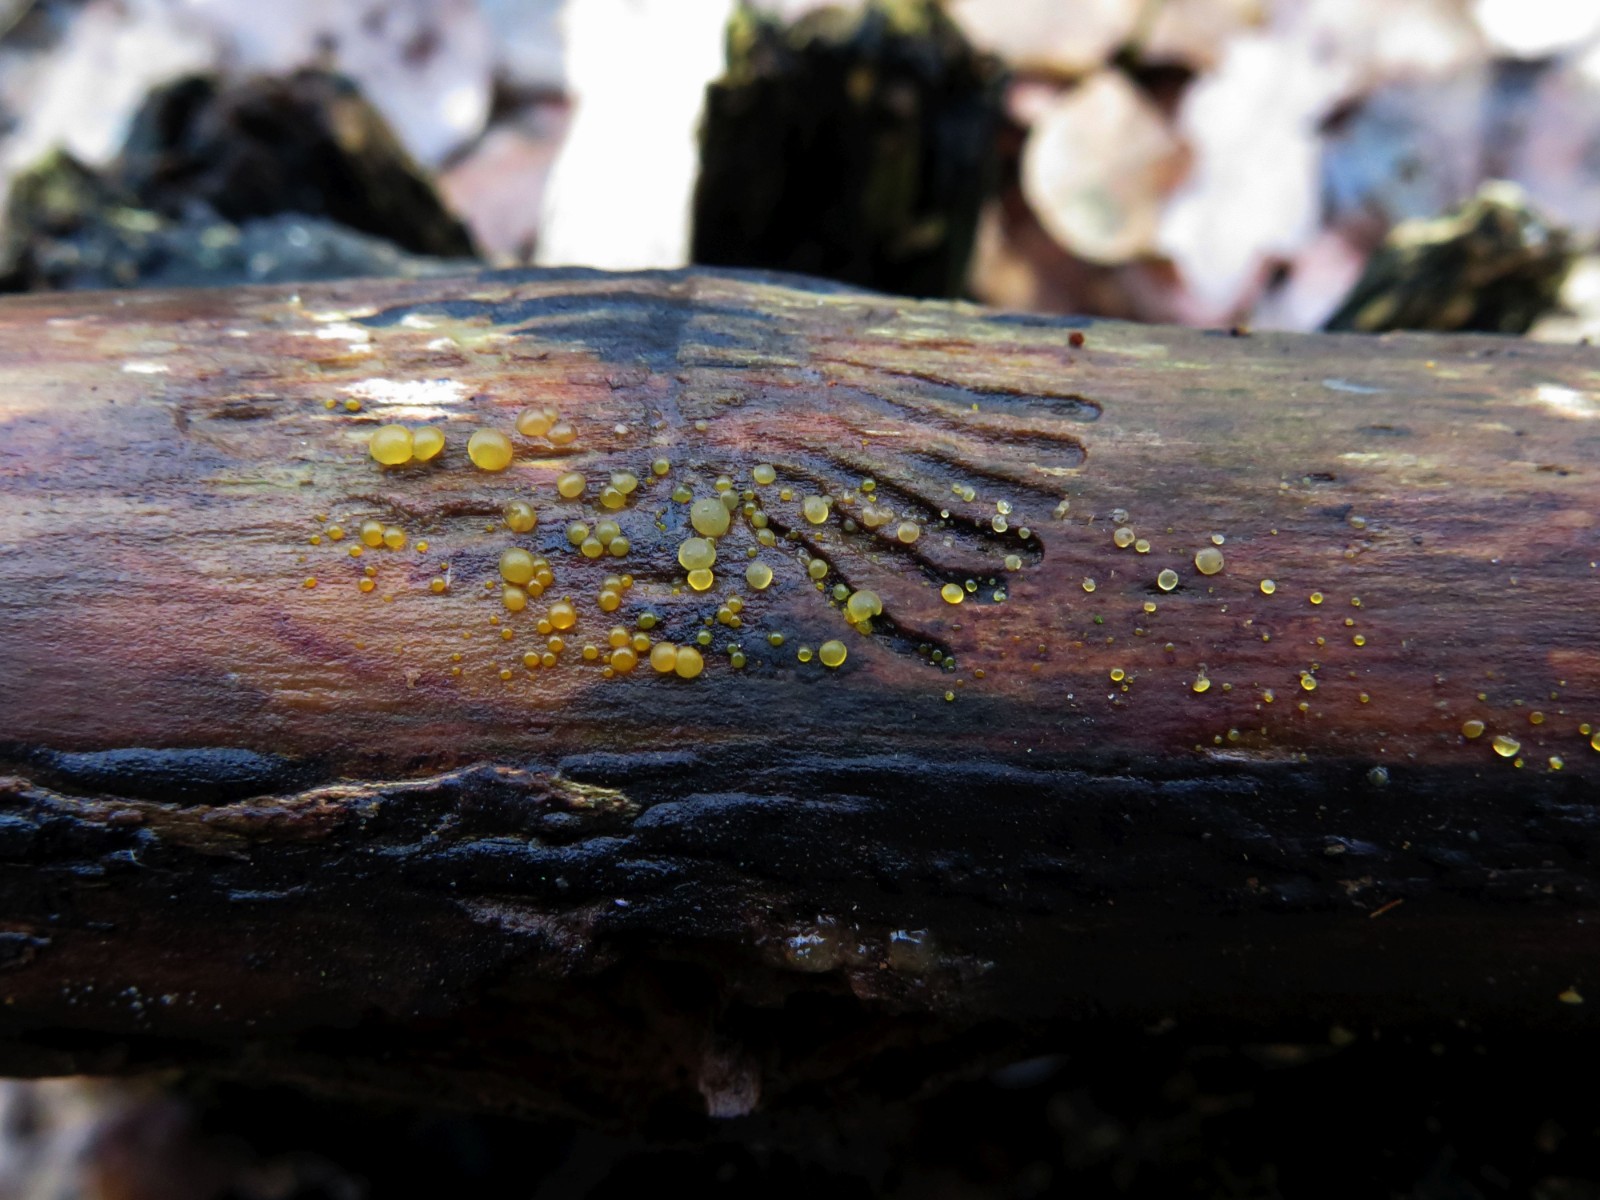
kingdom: Fungi
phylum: Basidiomycota
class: Dacrymycetes
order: Dacrymycetales
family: Dacrymycetaceae
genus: Dacrymyces
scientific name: Dacrymyces stillatus
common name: almindelig tåresvamp
